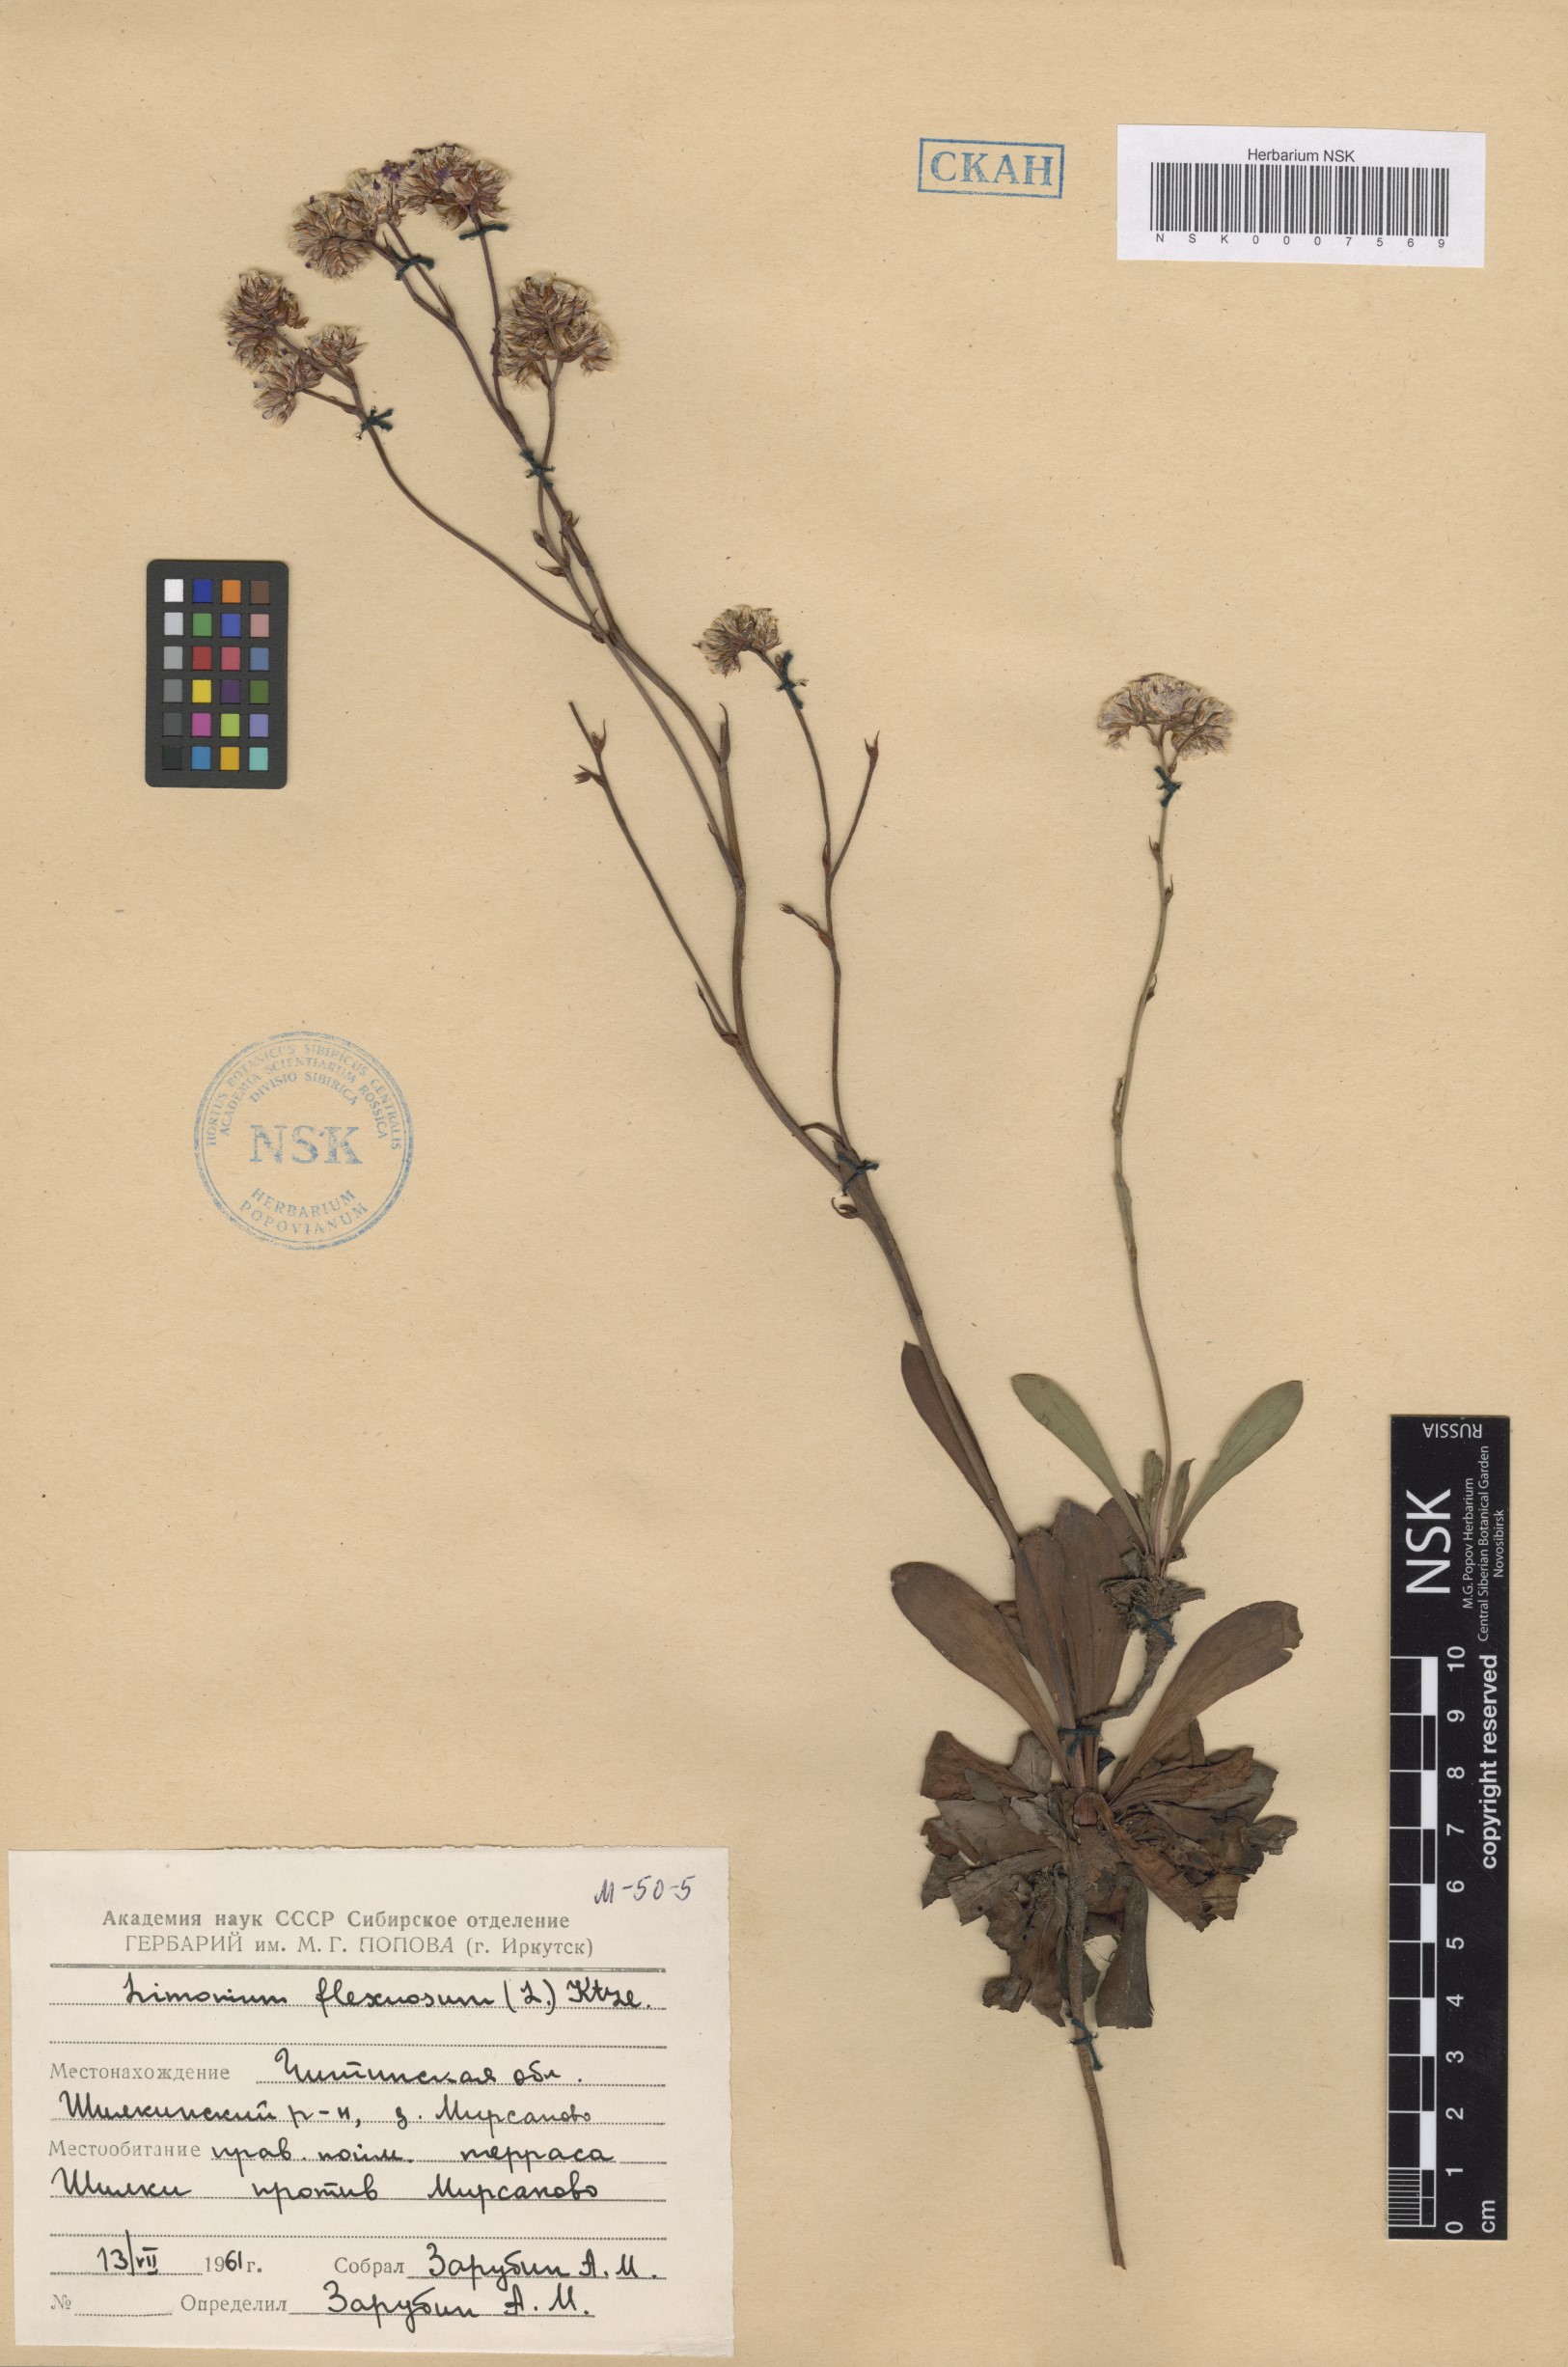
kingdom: Plantae
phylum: Tracheophyta
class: Magnoliopsida
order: Caryophyllales
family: Plumbaginaceae
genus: Limonium
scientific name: Limonium flexuosum
